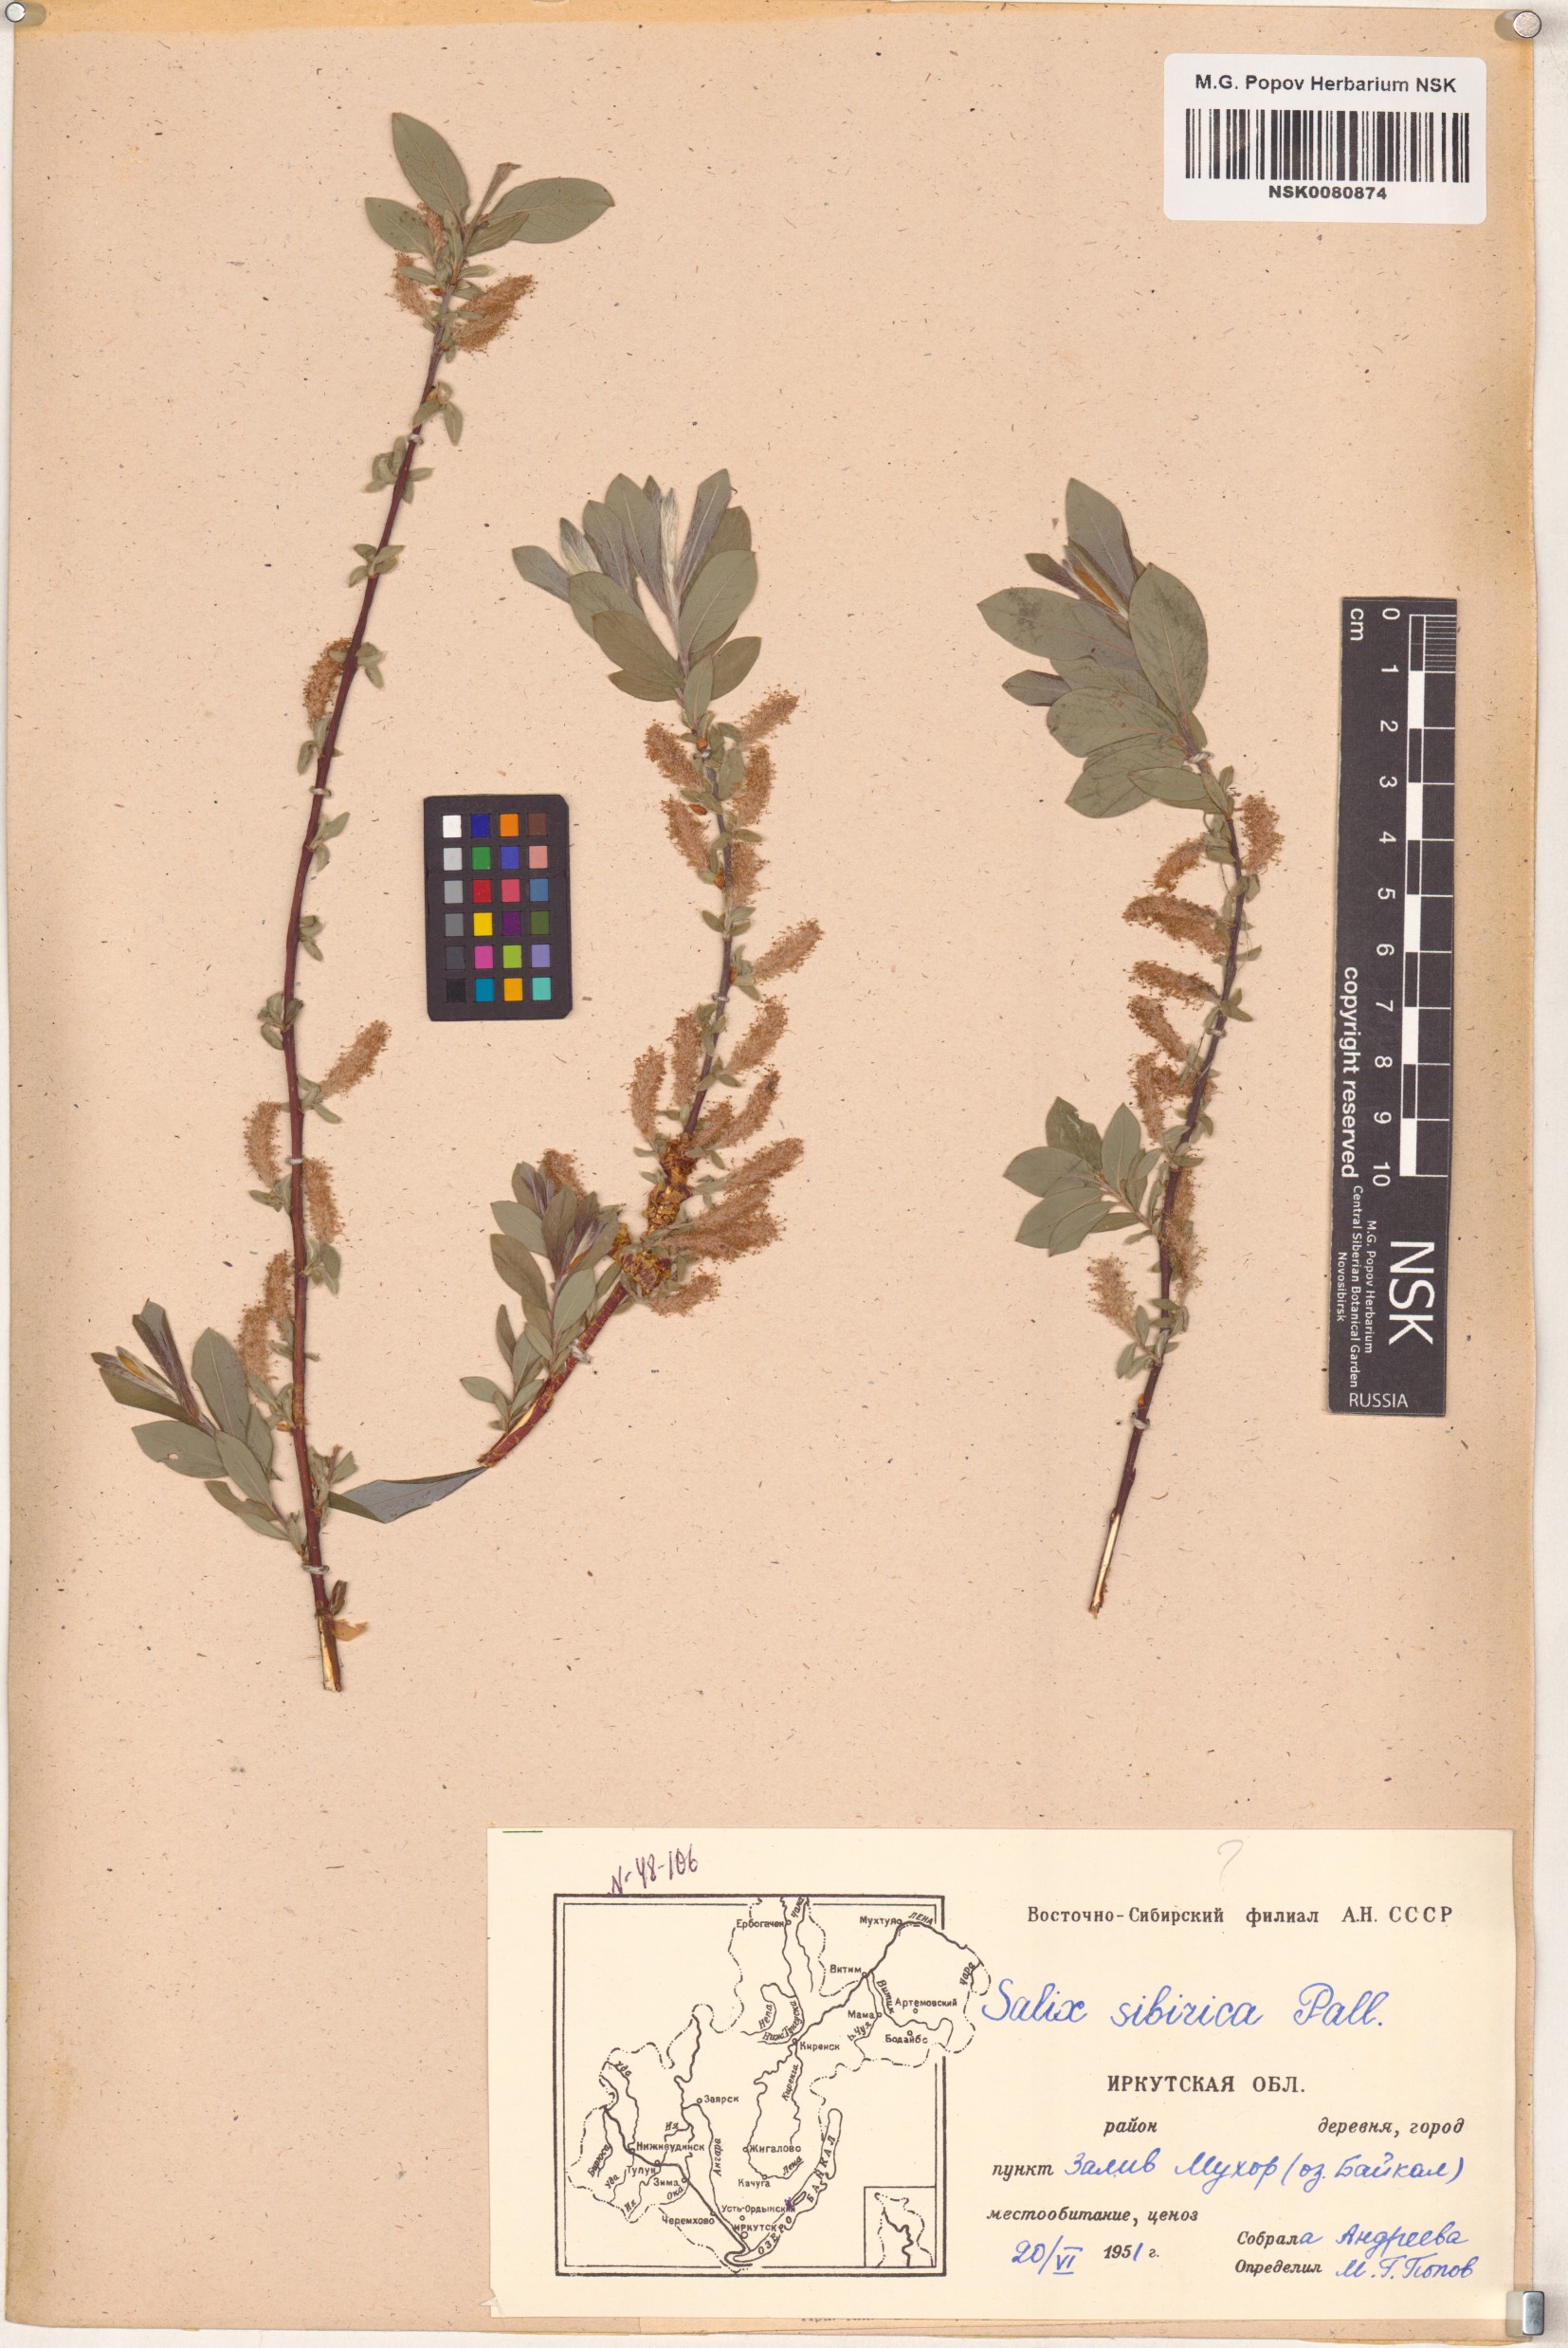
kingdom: Plantae
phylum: Tracheophyta
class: Magnoliopsida
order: Malpighiales
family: Salicaceae
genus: Salix
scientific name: Salix rosmarinifolia
